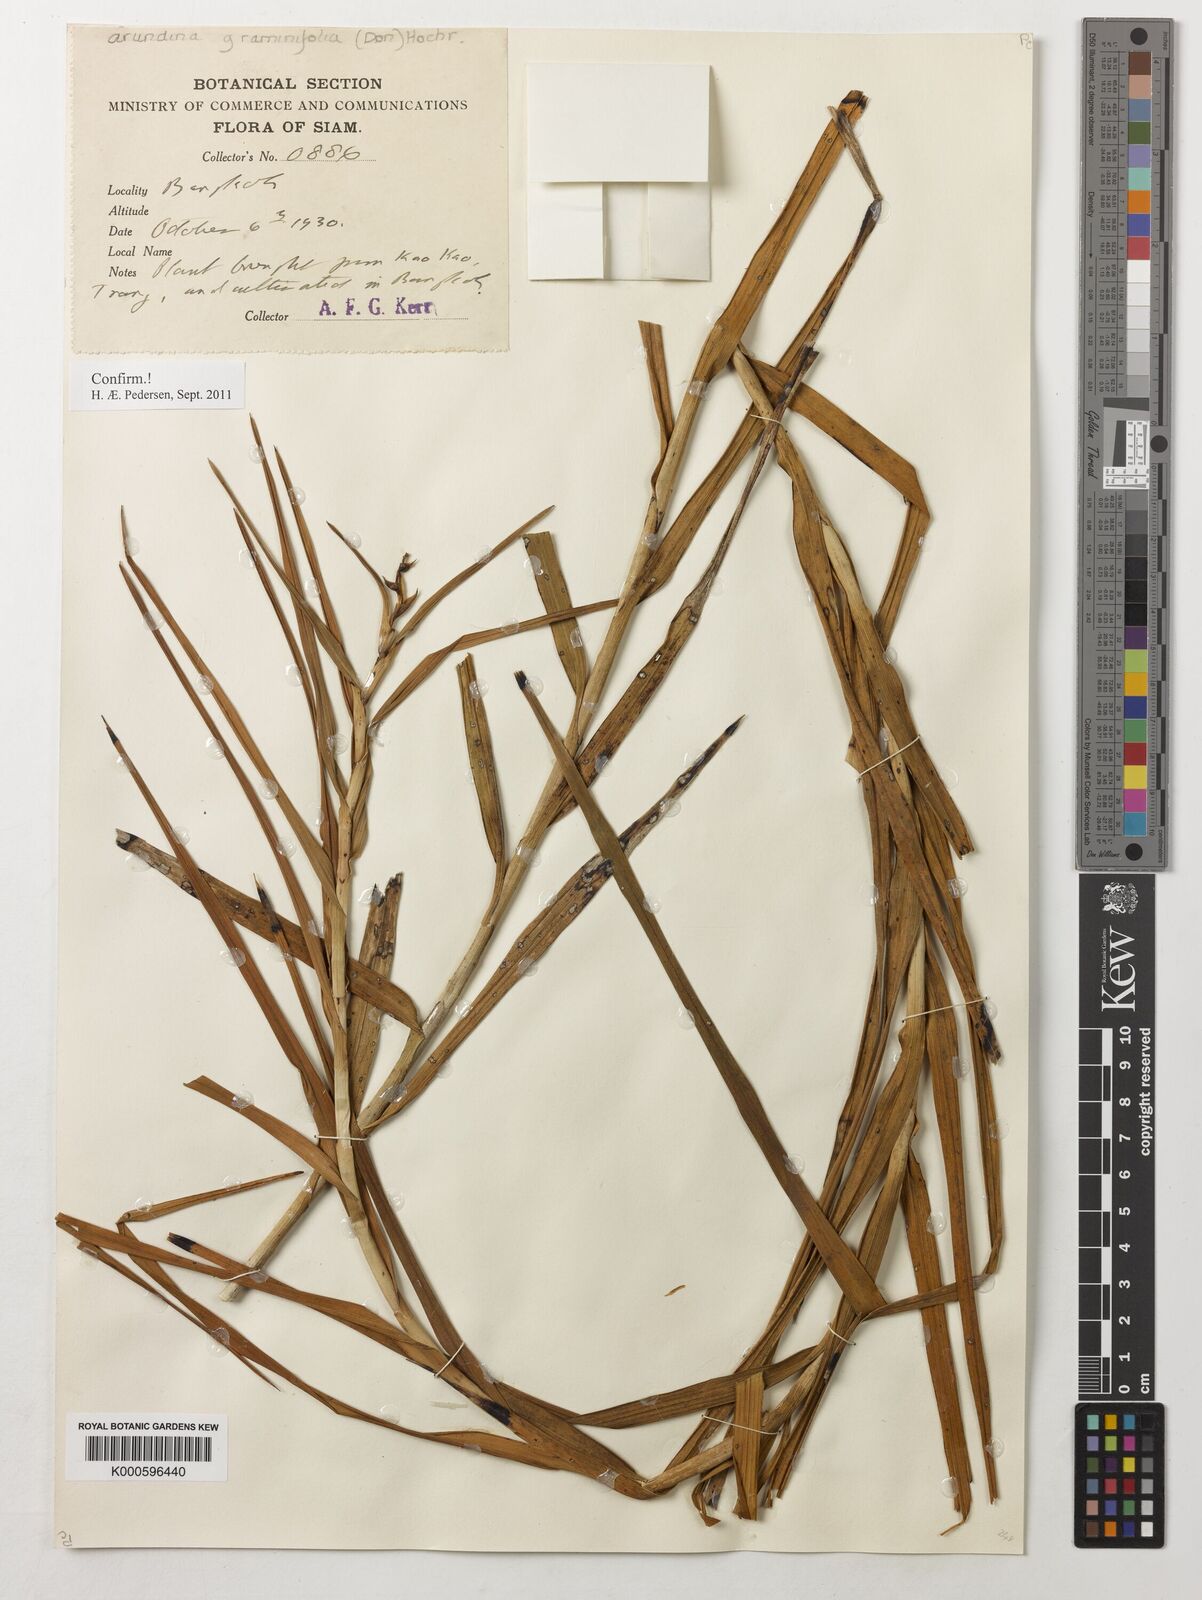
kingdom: Plantae
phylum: Tracheophyta
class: Liliopsida
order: Asparagales
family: Orchidaceae
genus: Arundina
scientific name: Arundina graminifolia
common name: Bamboo orchid
